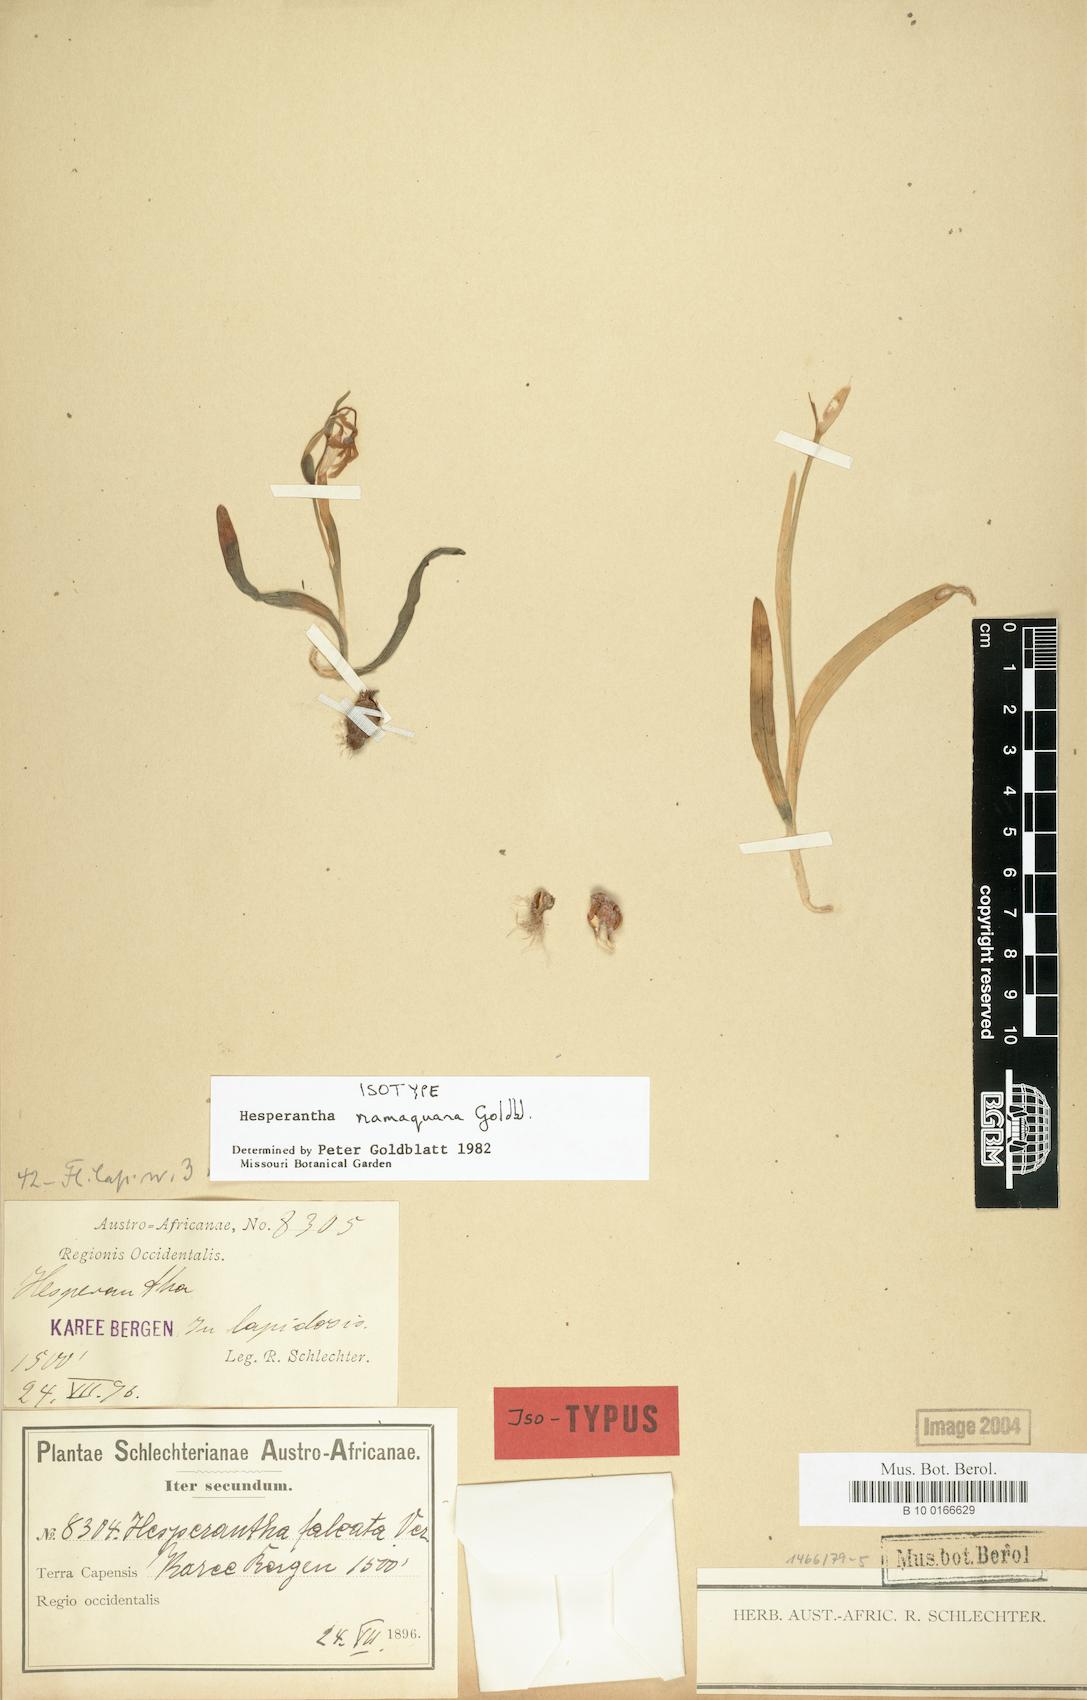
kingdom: Plantae
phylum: Tracheophyta
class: Liliopsida
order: Asparagales
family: Iridaceae
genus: Hesperantha
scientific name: Hesperantha namaquana
